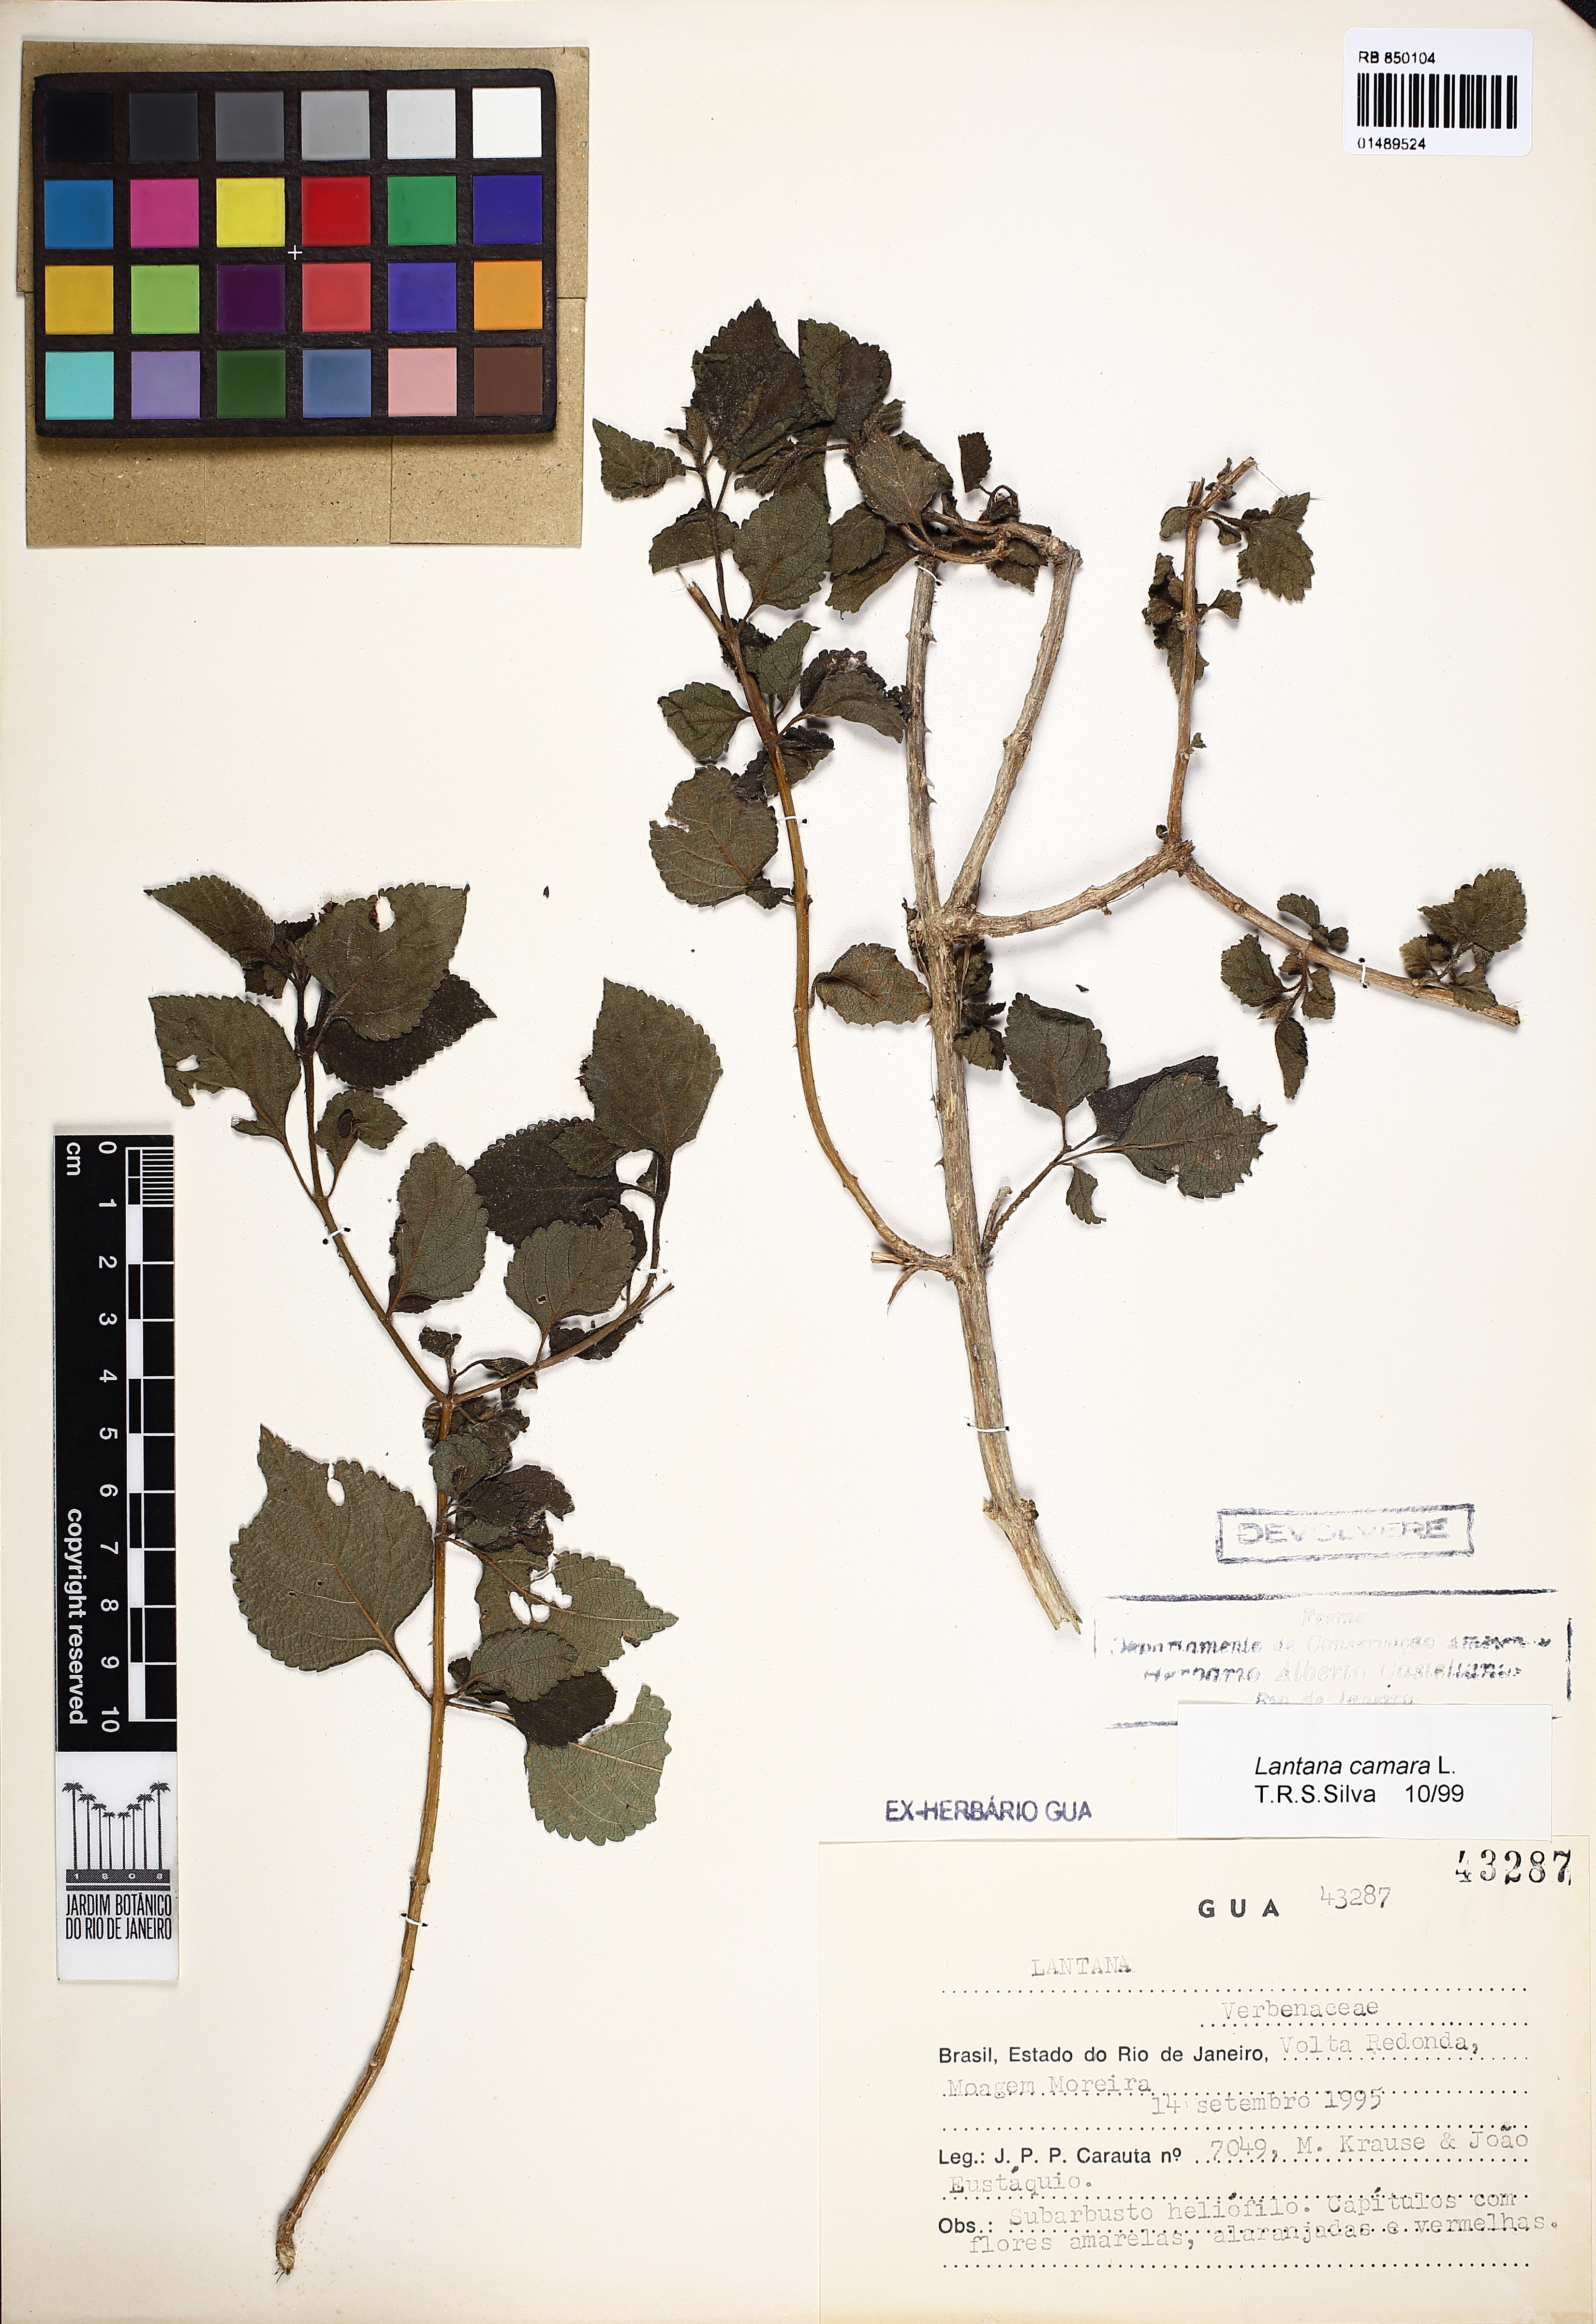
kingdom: Plantae
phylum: Tracheophyta
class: Magnoliopsida
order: Lamiales
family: Verbenaceae
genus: Lantana
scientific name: Lantana camara
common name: Lantana
